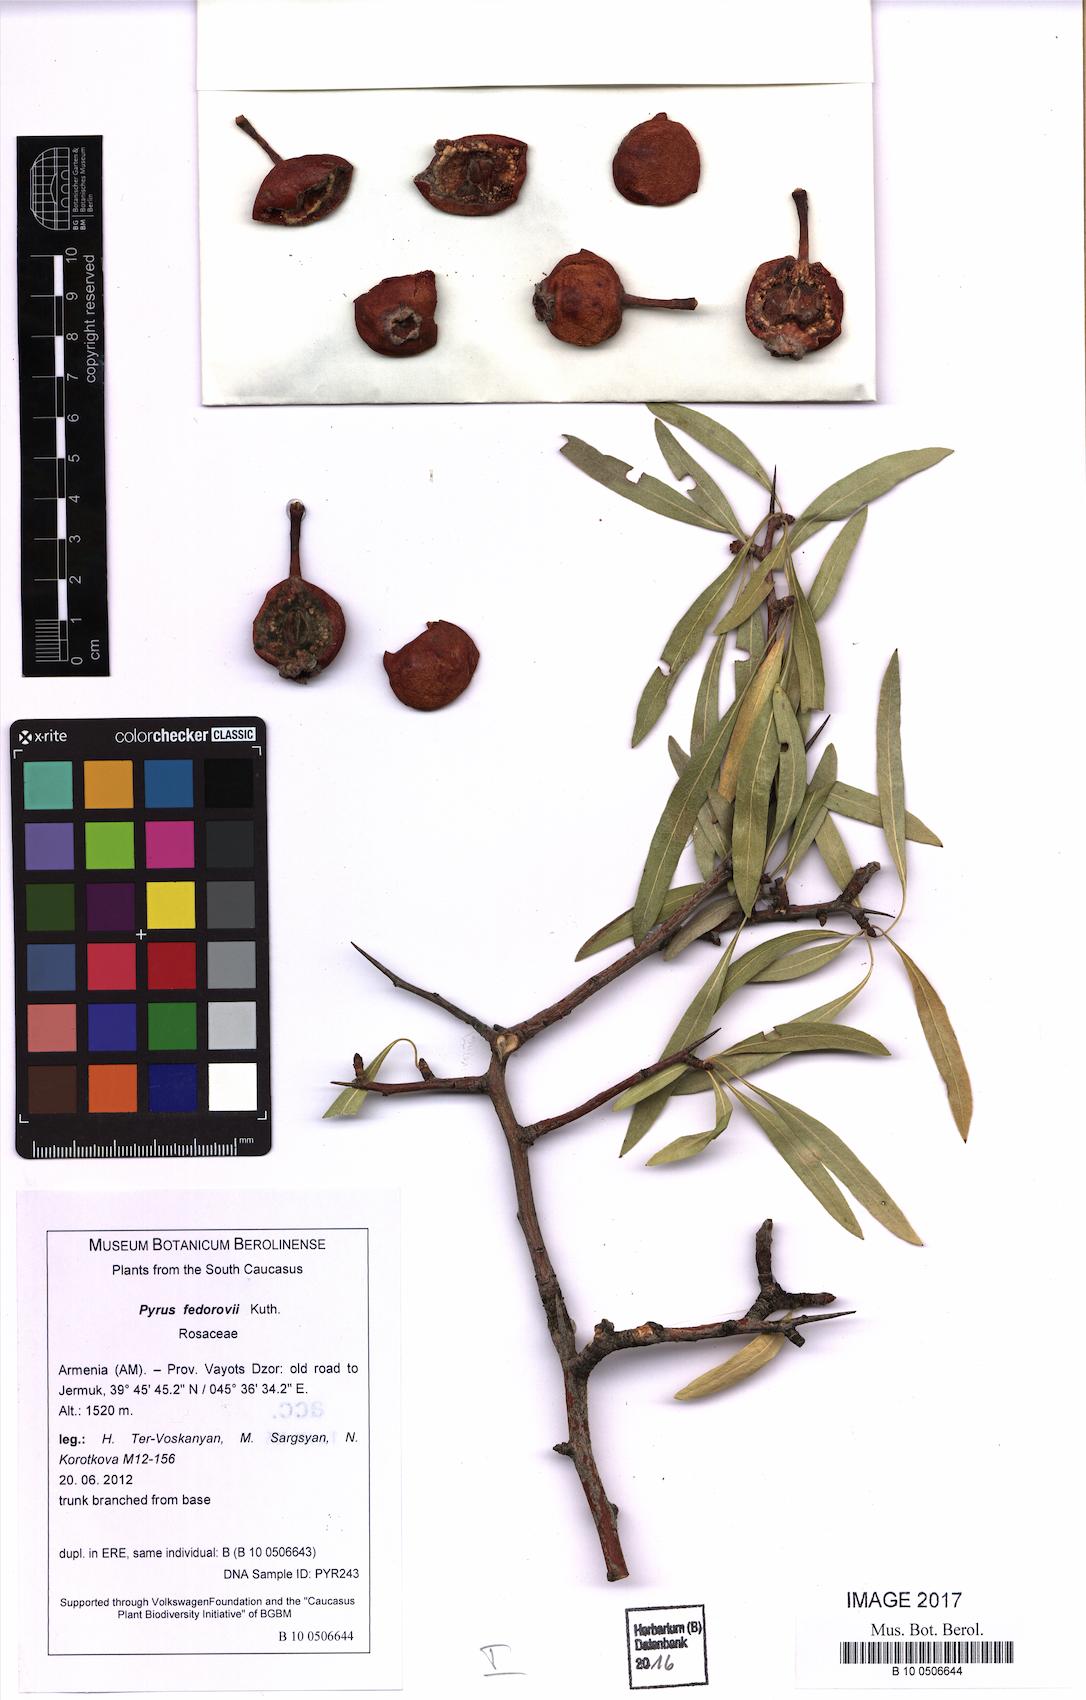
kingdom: Plantae
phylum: Tracheophyta
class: Magnoliopsida
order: Rosales
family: Rosaceae
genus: Pyrus
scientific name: Pyrus fedorovii
